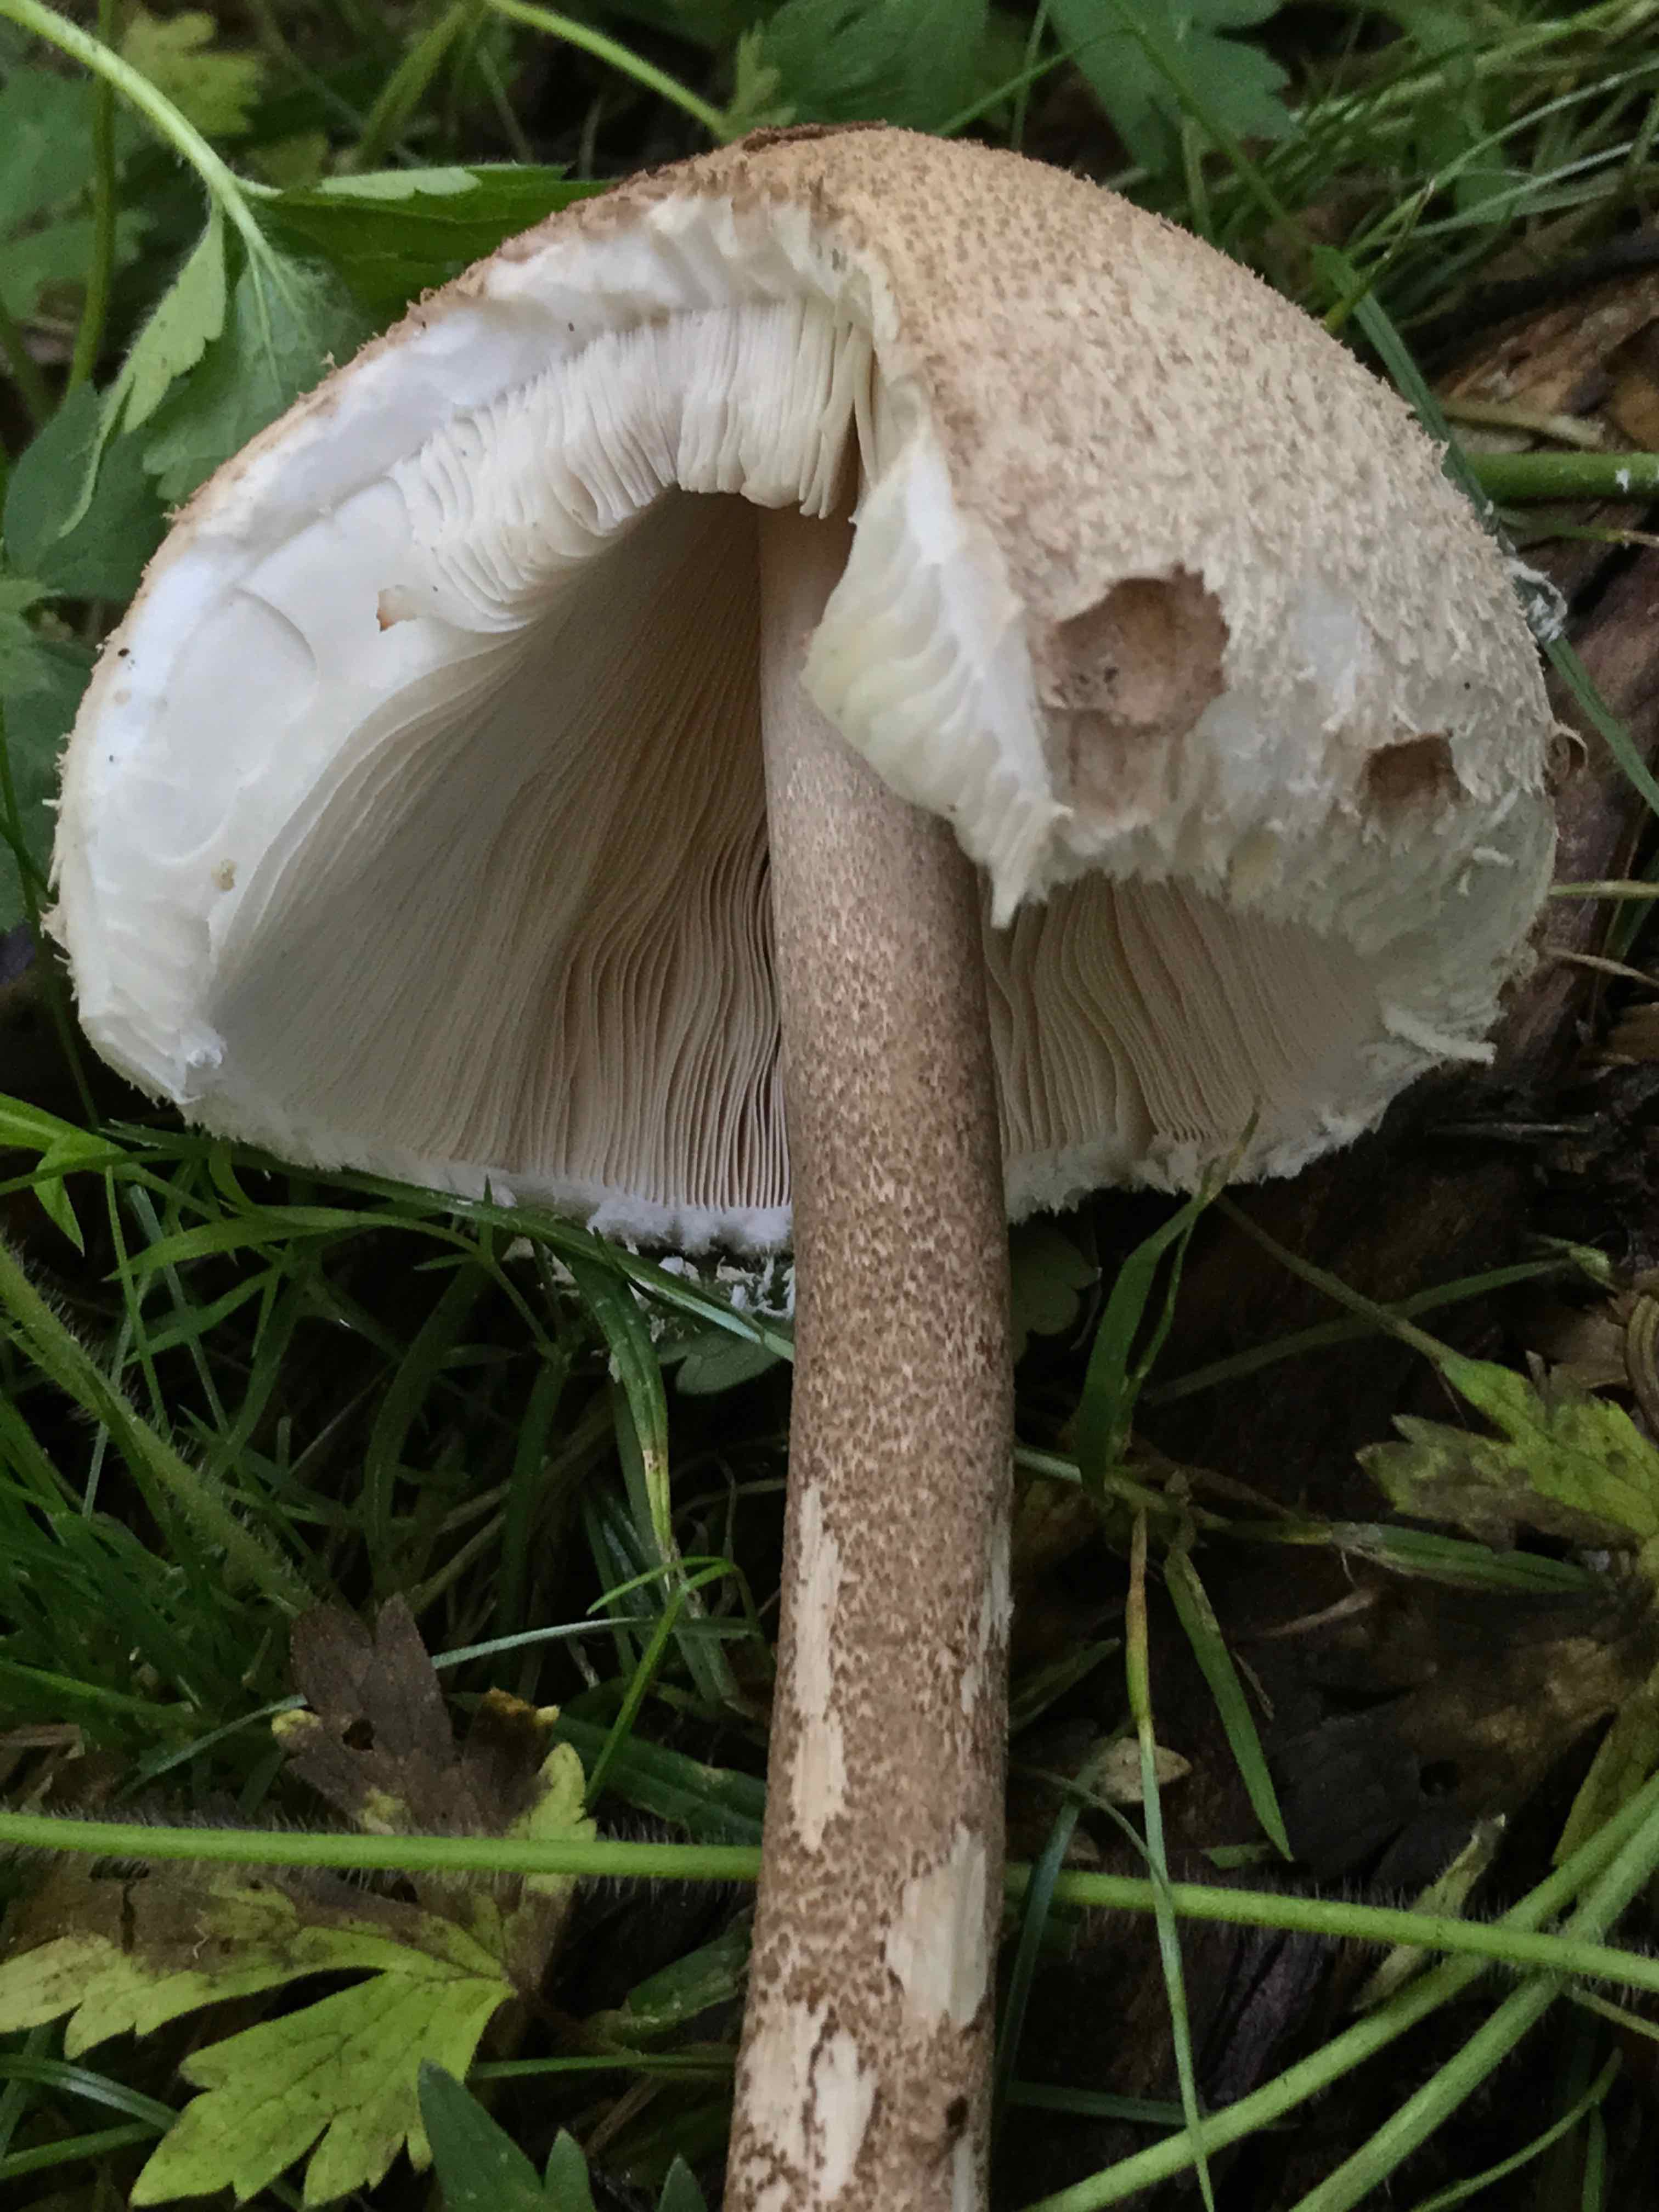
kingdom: Fungi
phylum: Basidiomycota
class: Agaricomycetes
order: Agaricales
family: Agaricaceae
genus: Macrolepiota
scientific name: Macrolepiota procera
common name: stor kæmpeparasolhat
